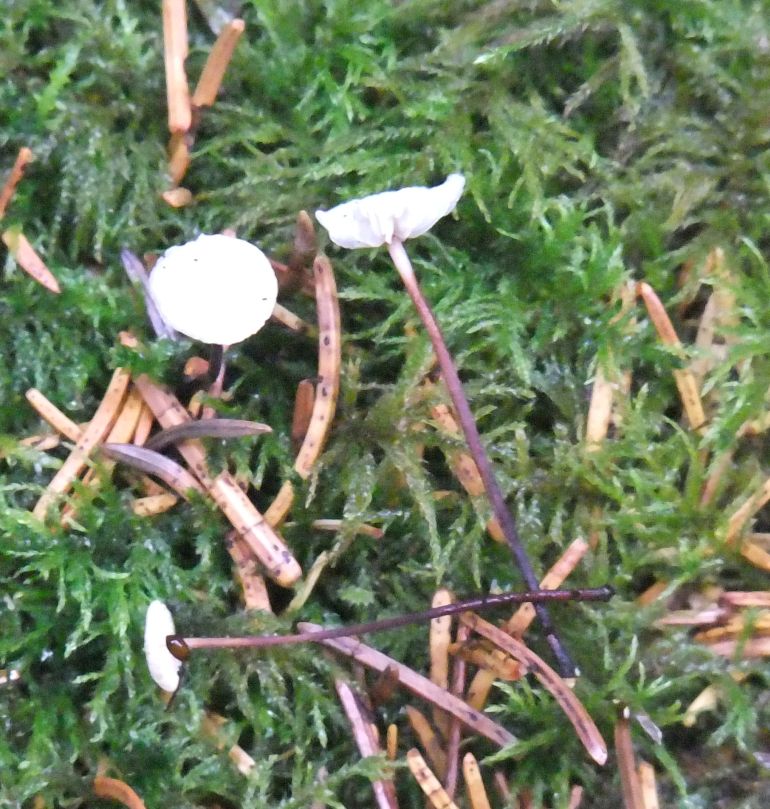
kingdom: Fungi
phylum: Basidiomycota
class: Agaricomycetes
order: Agaricales
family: Omphalotaceae
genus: Paragymnopus
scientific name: Paragymnopus perforans
